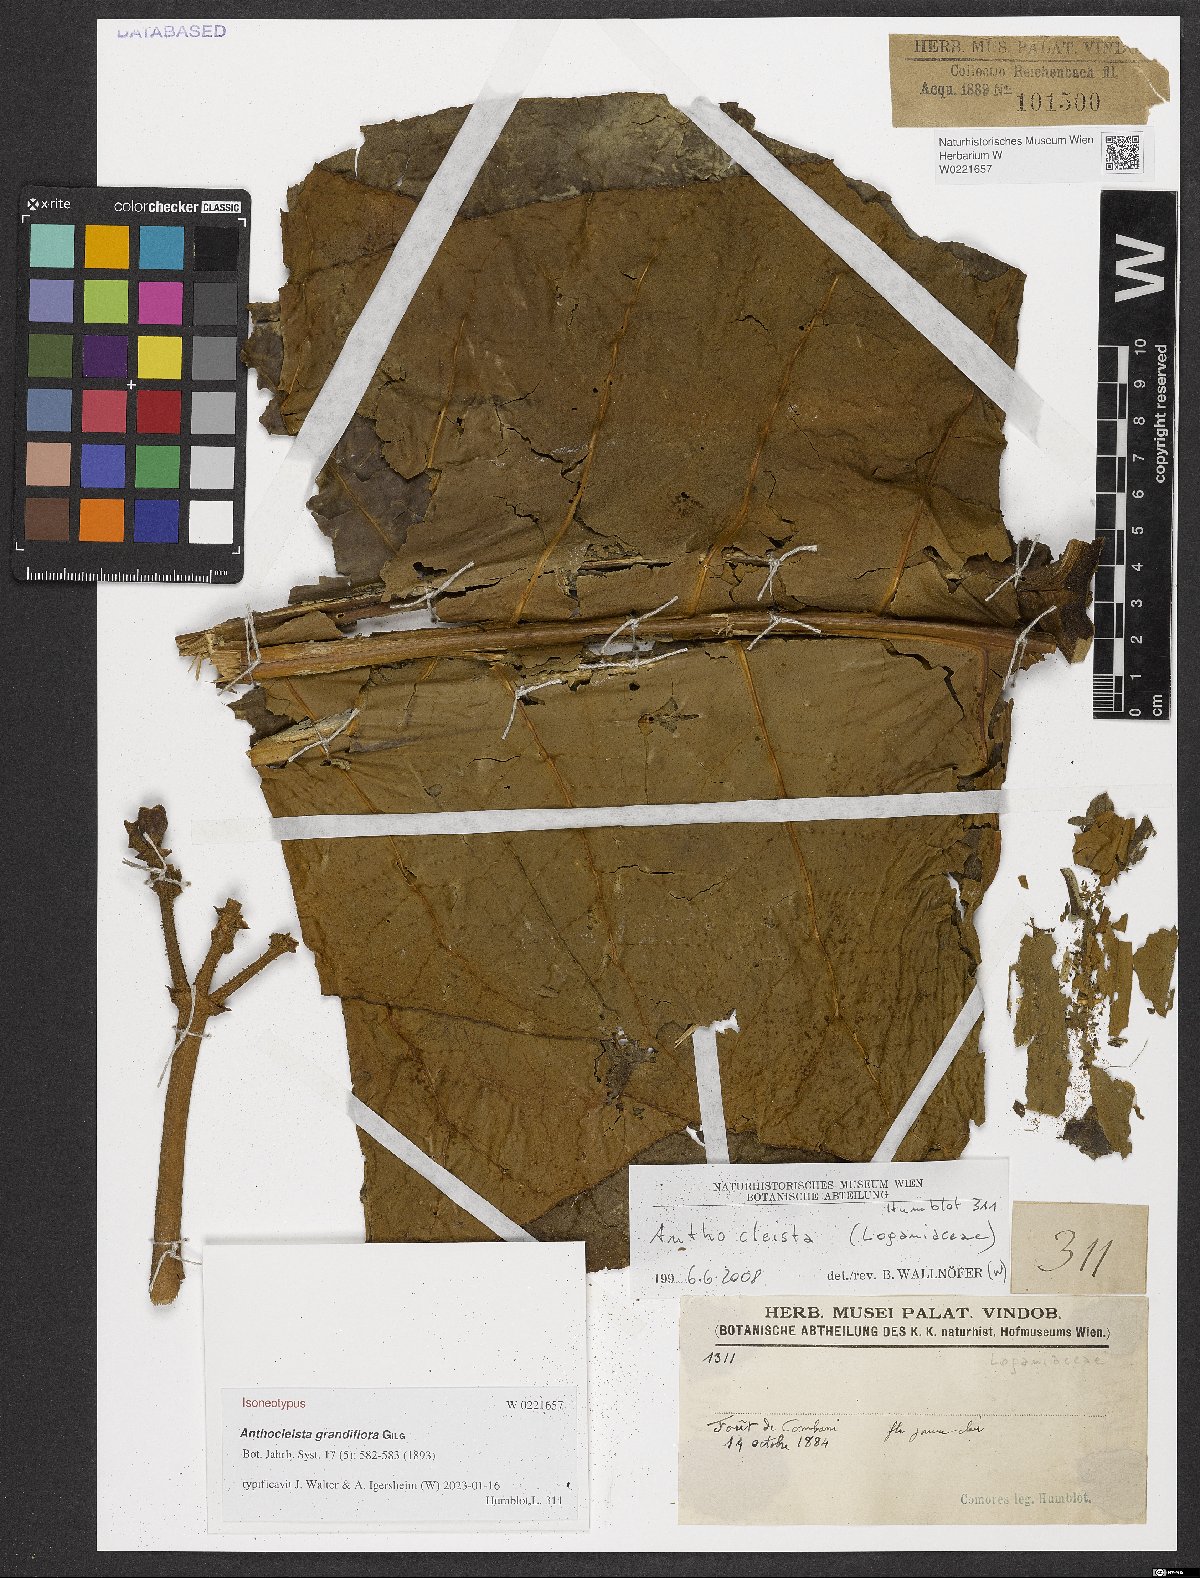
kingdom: Plantae
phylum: Tracheophyta
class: Magnoliopsida
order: Gentianales
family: Gentianaceae
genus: Anthocleista
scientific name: Anthocleista grandiflora
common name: Forest big-leaf
